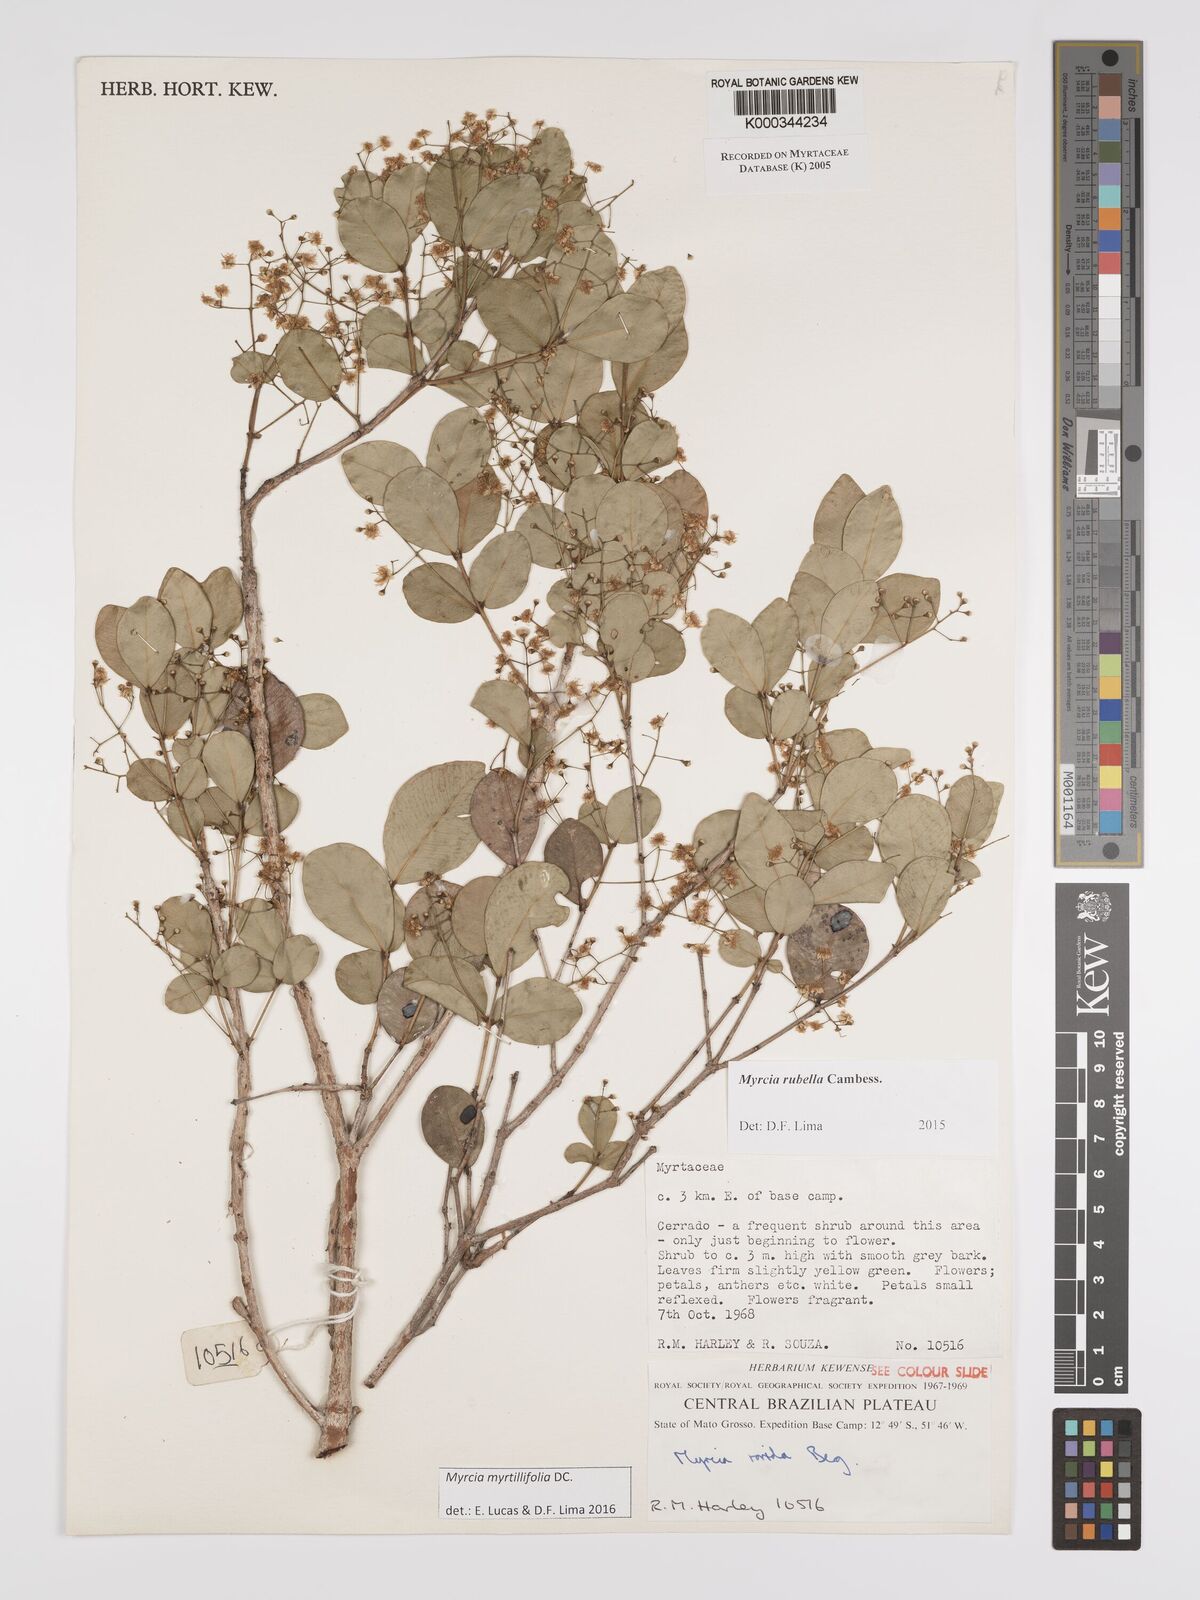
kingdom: Plantae
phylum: Tracheophyta
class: Magnoliopsida
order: Myrtales
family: Myrtaceae
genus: Myrcia
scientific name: Myrcia guianensis
